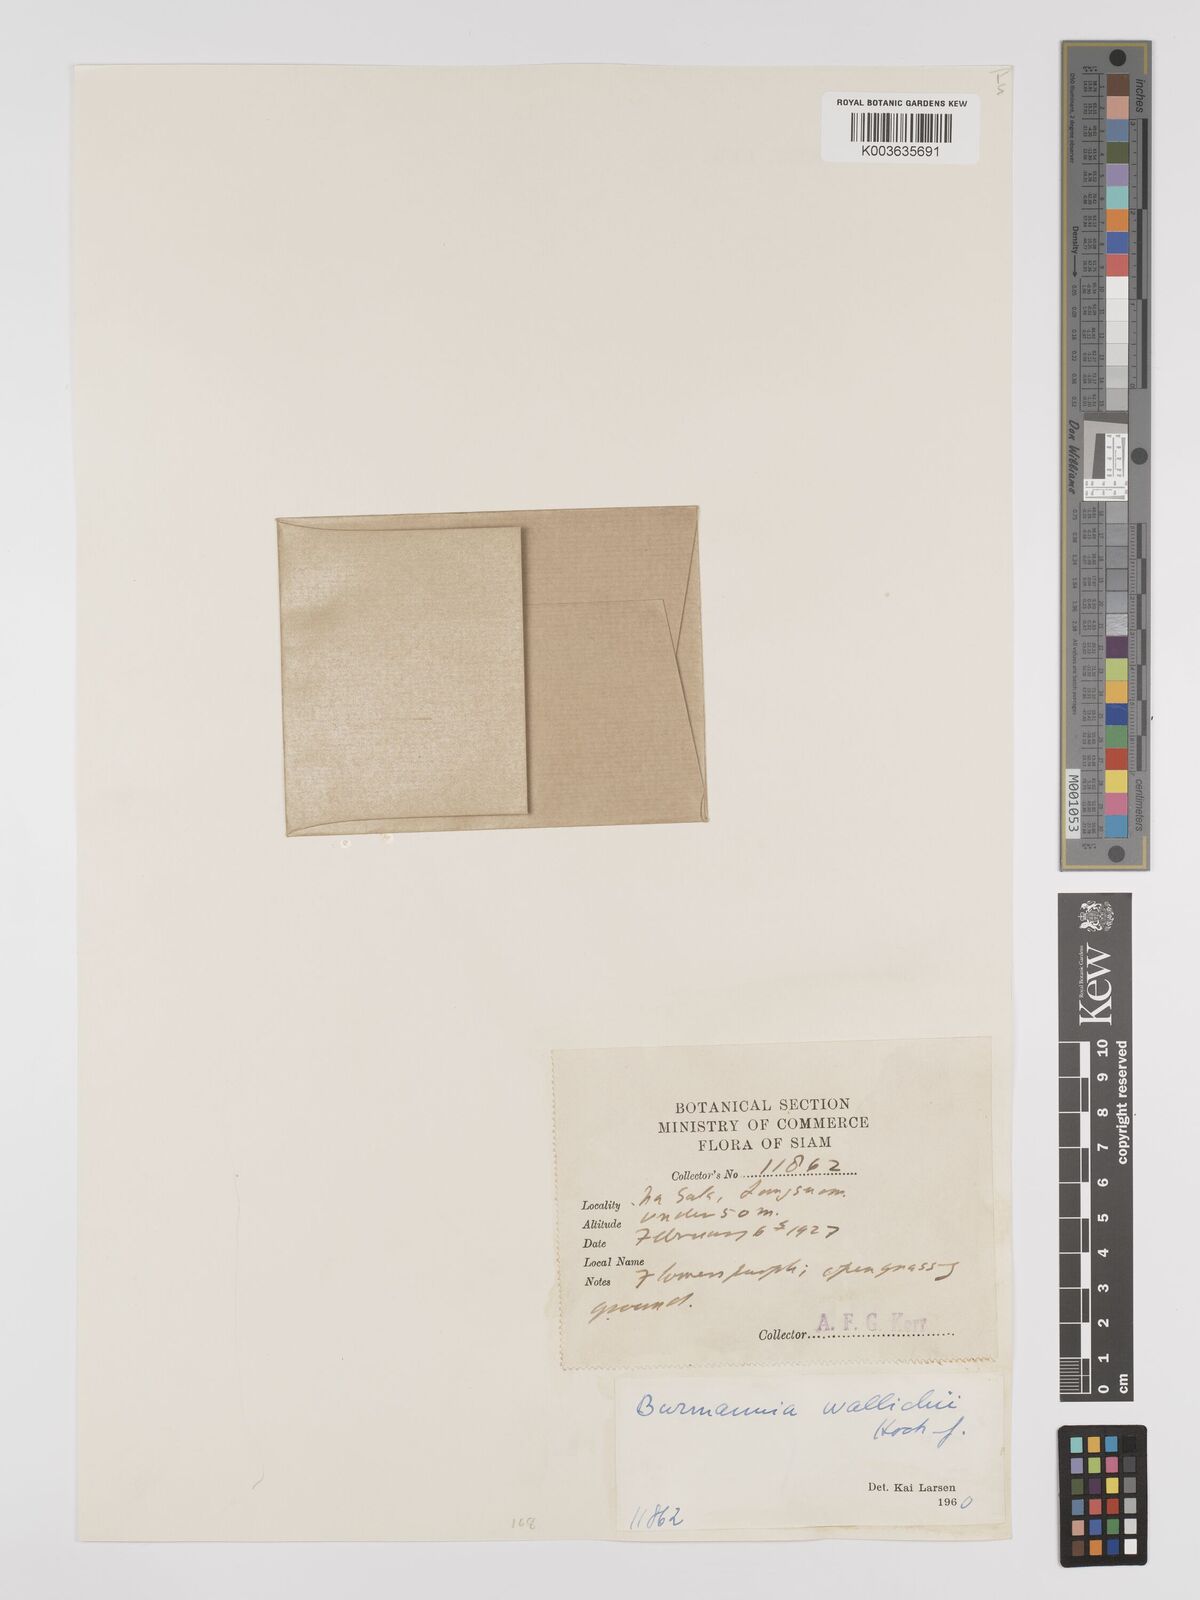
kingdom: Plantae
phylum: Tracheophyta
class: Liliopsida
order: Dioscoreales
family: Burmanniaceae
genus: Burmannia
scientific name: Burmannia wallichii
